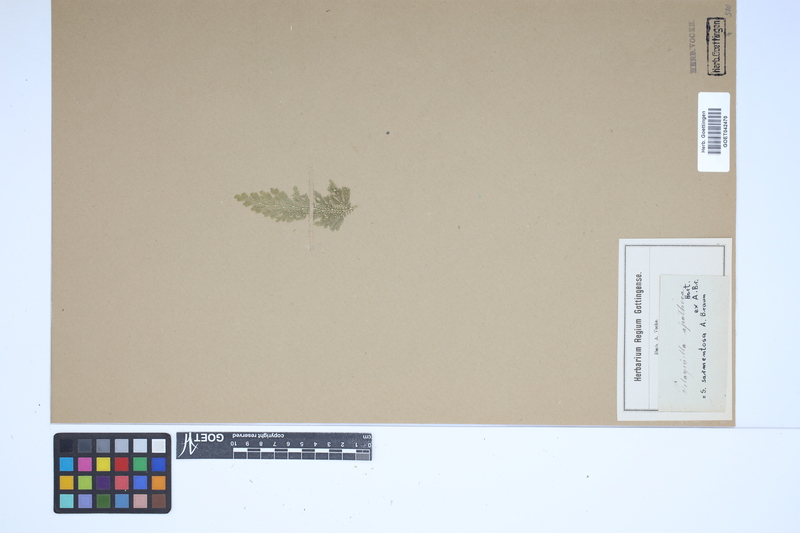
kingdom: Plantae
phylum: Tracheophyta
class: Lycopodiopsida
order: Selaginellales
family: Selaginellaceae
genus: Selaginella
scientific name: Selaginella heterodonta
